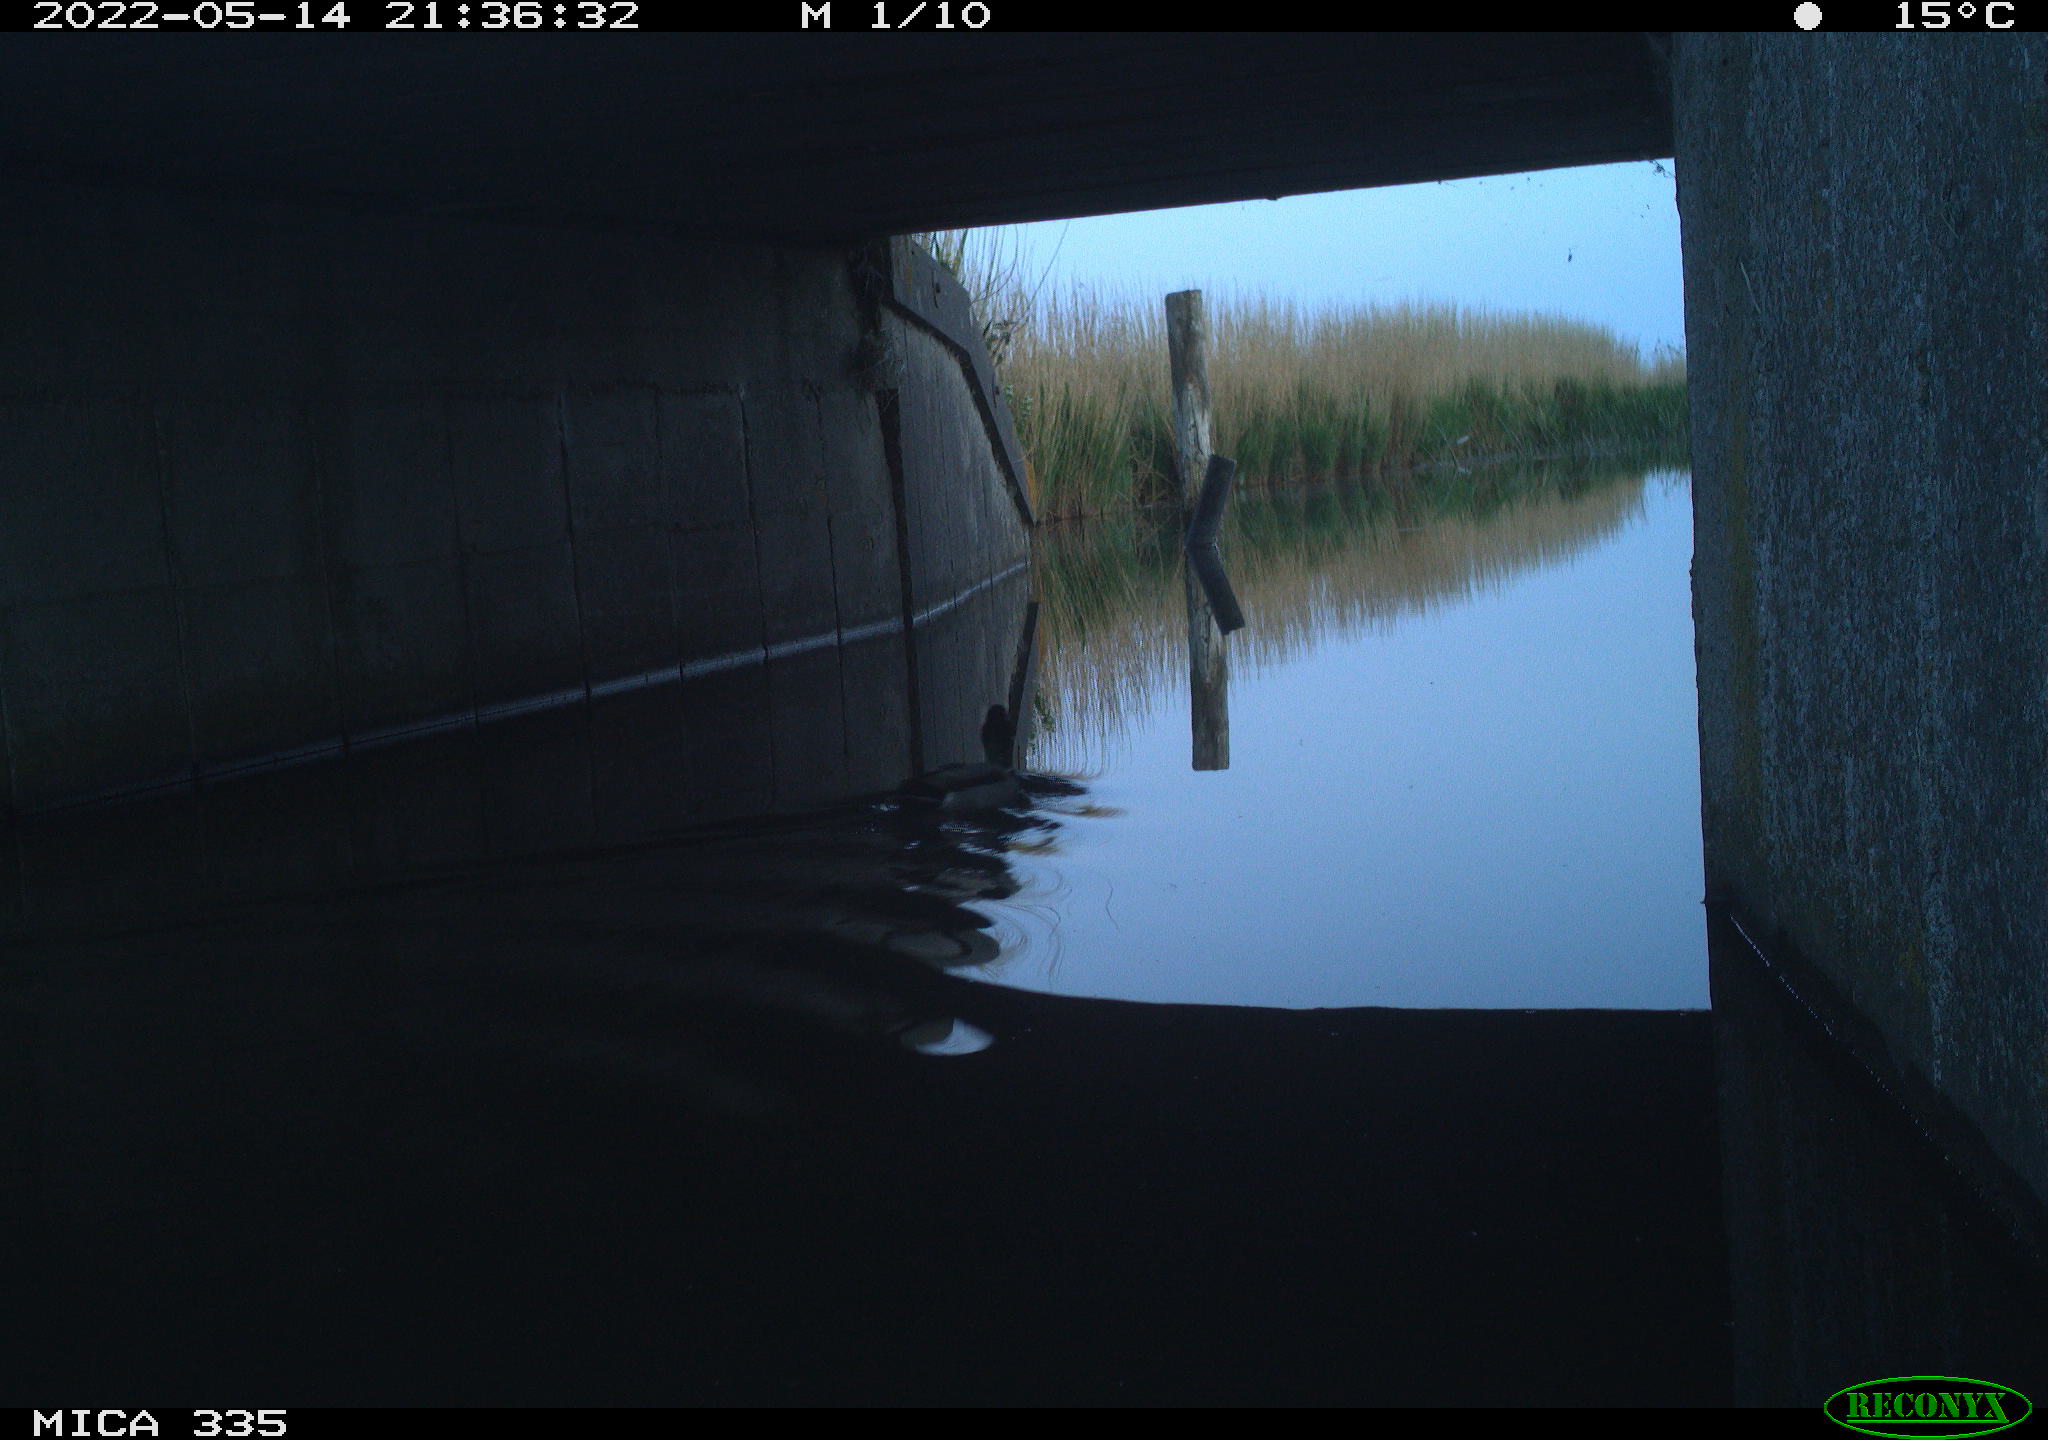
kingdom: Animalia
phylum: Chordata
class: Aves
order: Anseriformes
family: Anatidae
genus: Anas
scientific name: Anas platyrhynchos
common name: Mallard
